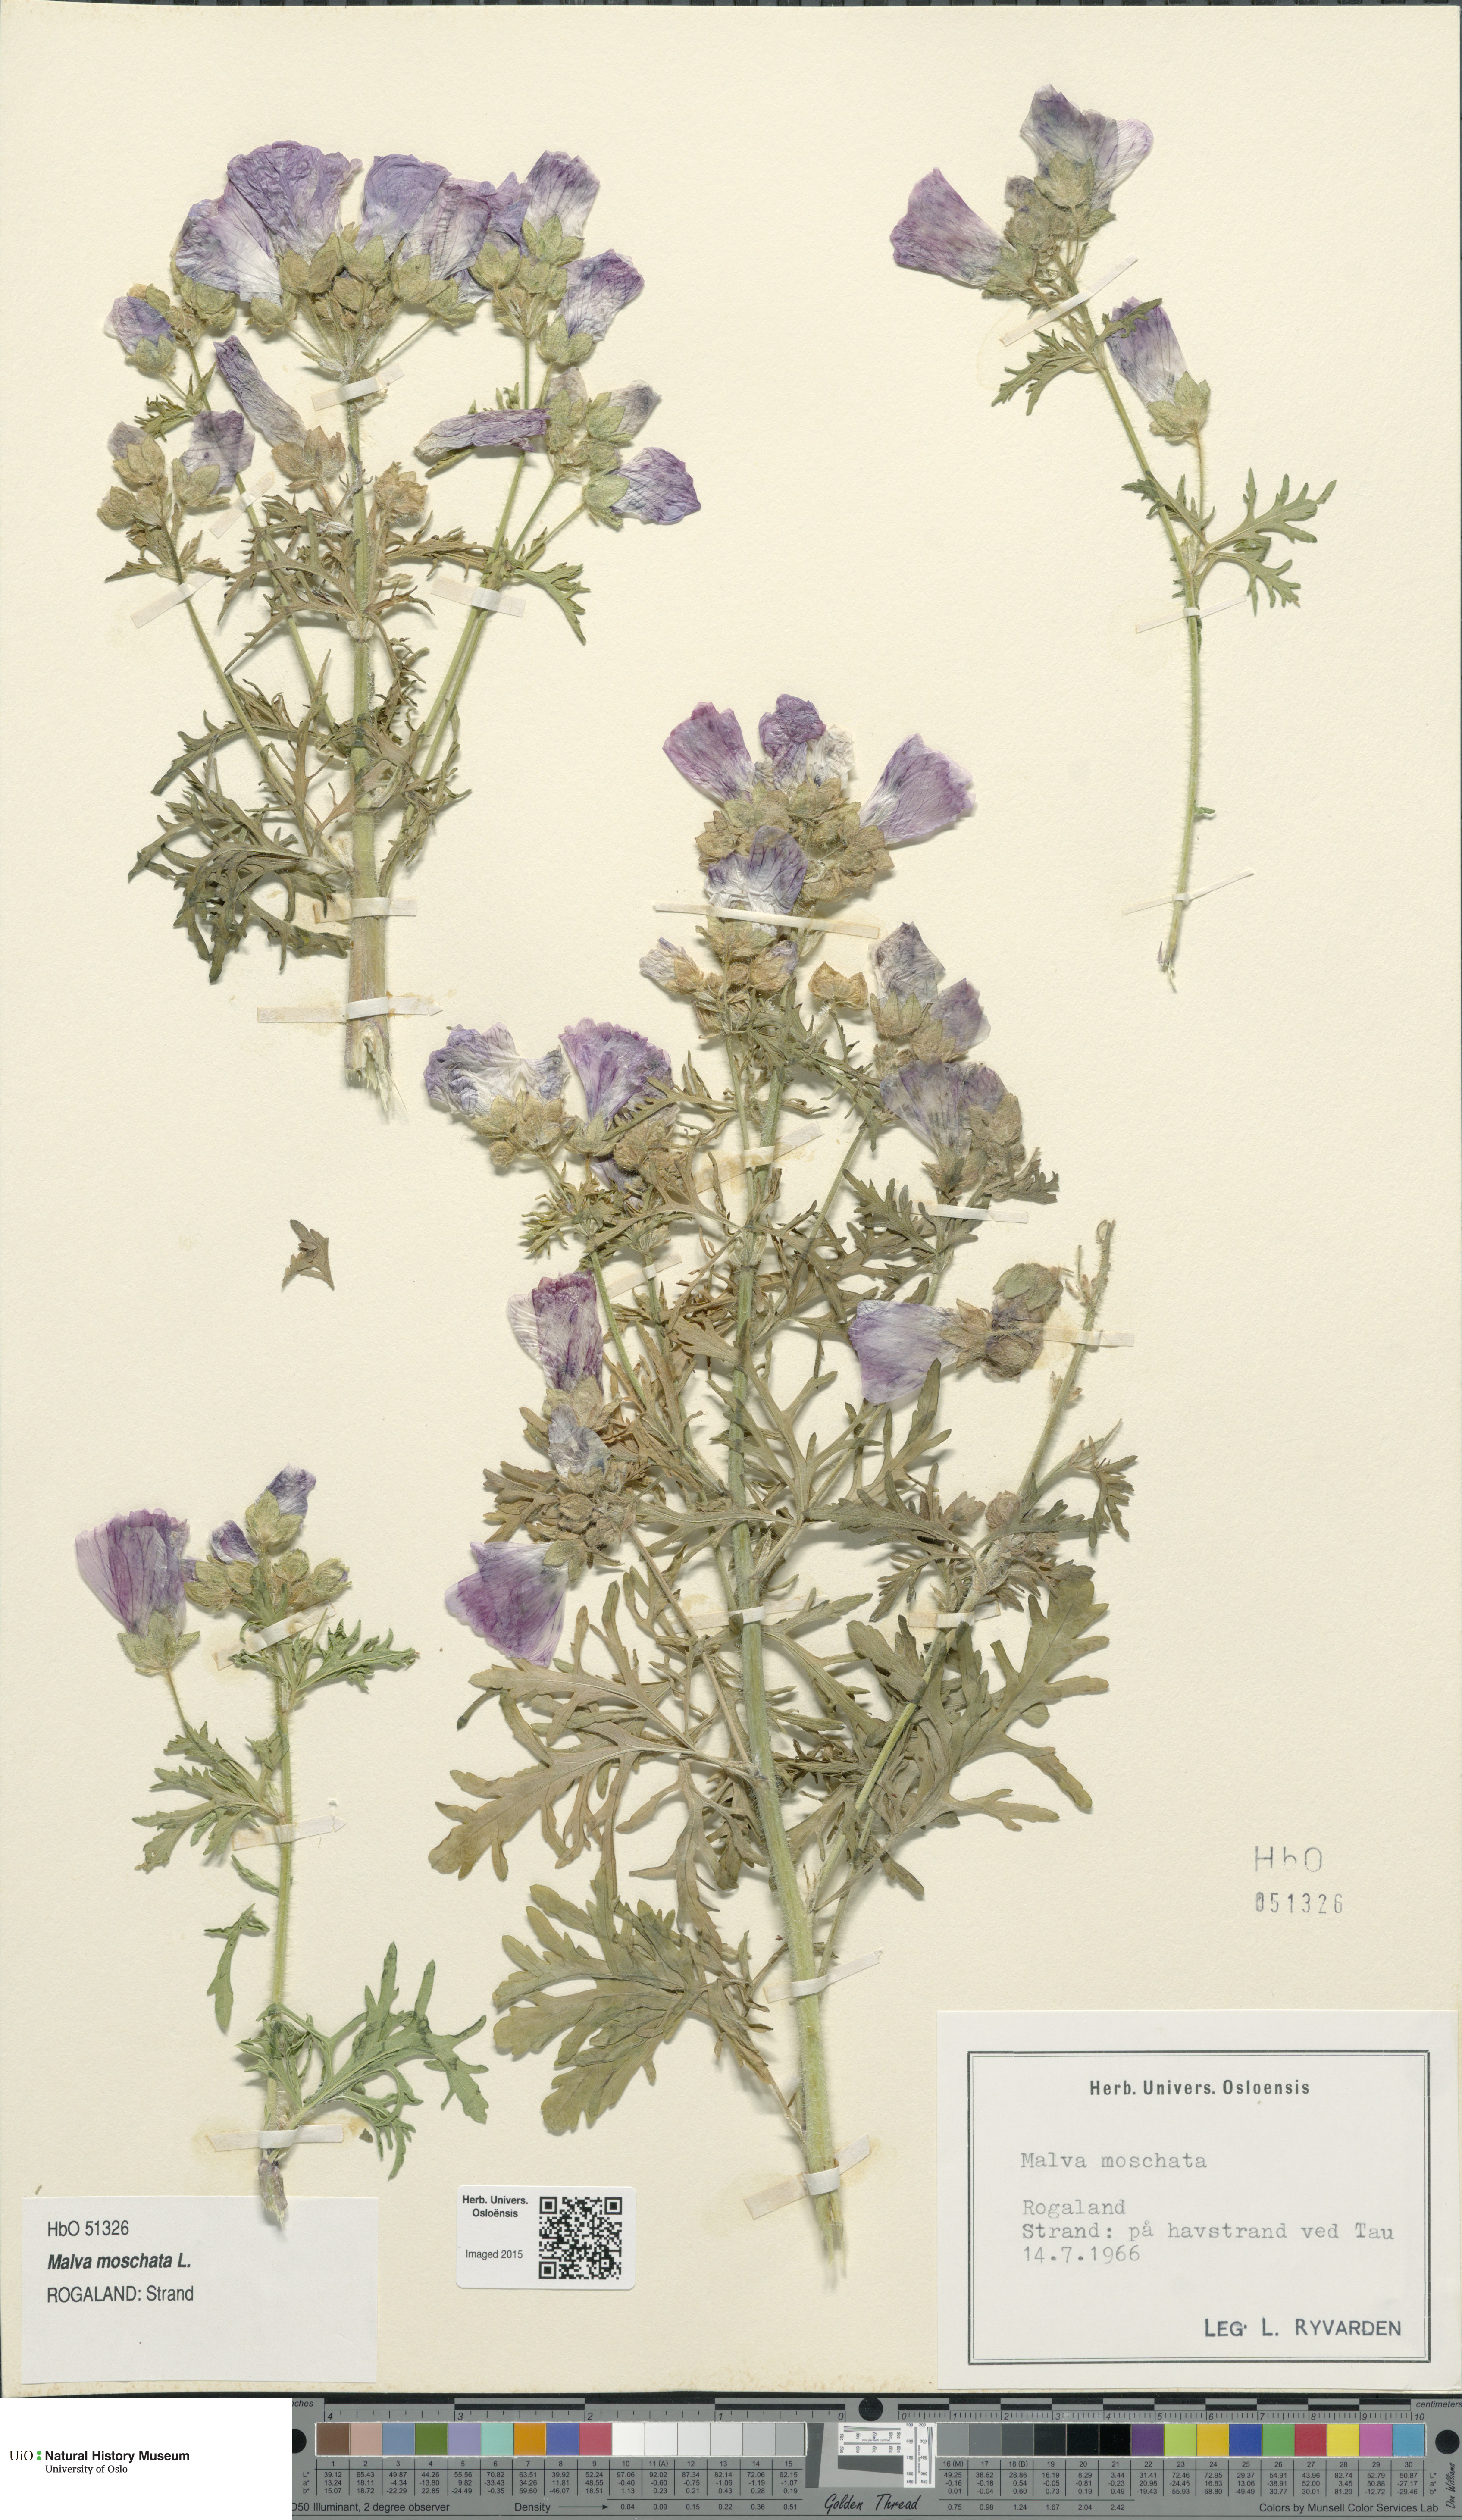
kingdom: Plantae
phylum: Tracheophyta
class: Magnoliopsida
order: Malvales
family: Malvaceae
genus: Malva
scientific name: Malva moschata
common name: Musk mallow
